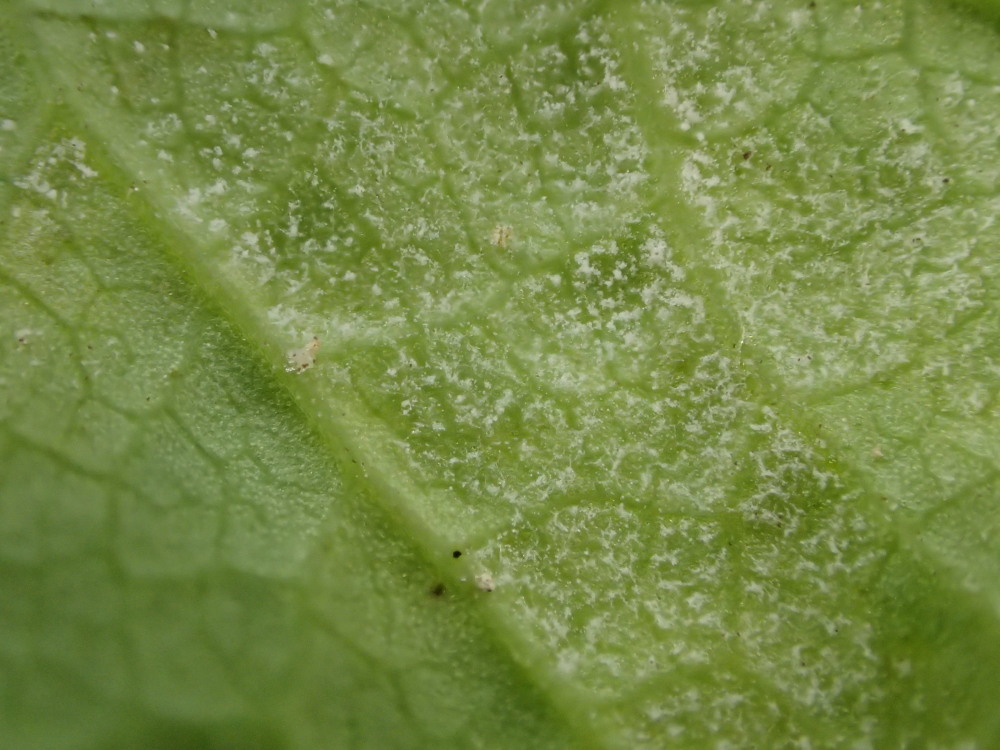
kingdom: Chromista
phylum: Oomycota
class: Peronosporea
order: Peronosporales
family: Peronosporaceae
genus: Peronospora
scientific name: Peronospora crustosa
